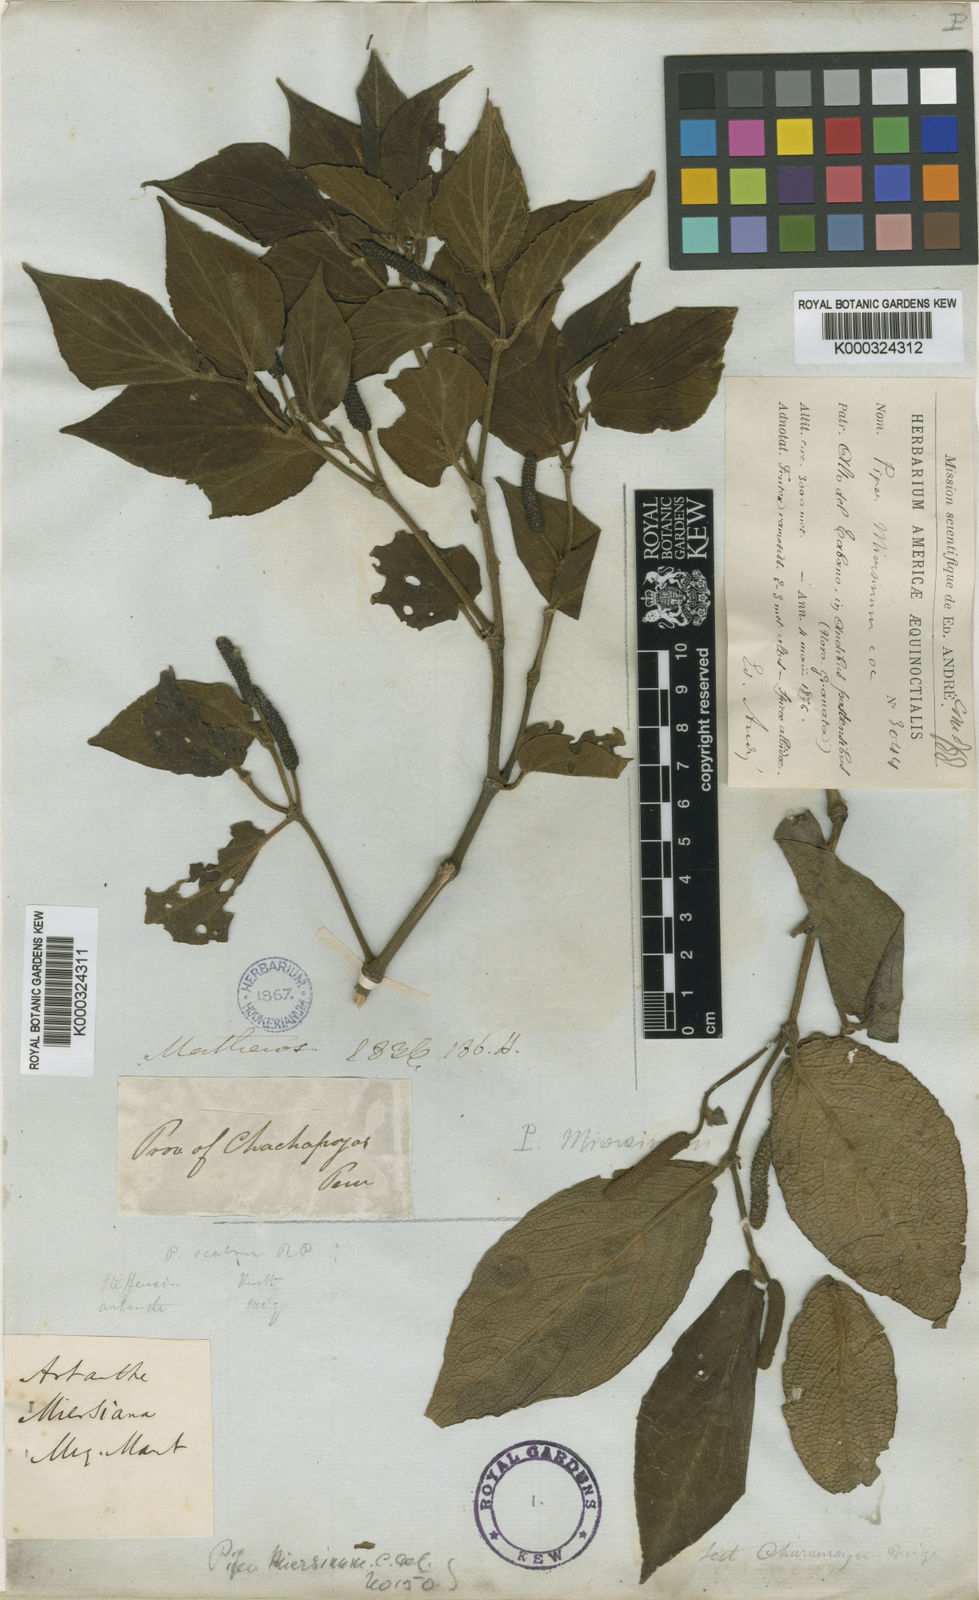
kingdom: Plantae
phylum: Tracheophyta
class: Magnoliopsida
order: Piperales
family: Piperaceae
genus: Piper
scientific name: Piper miersinum
